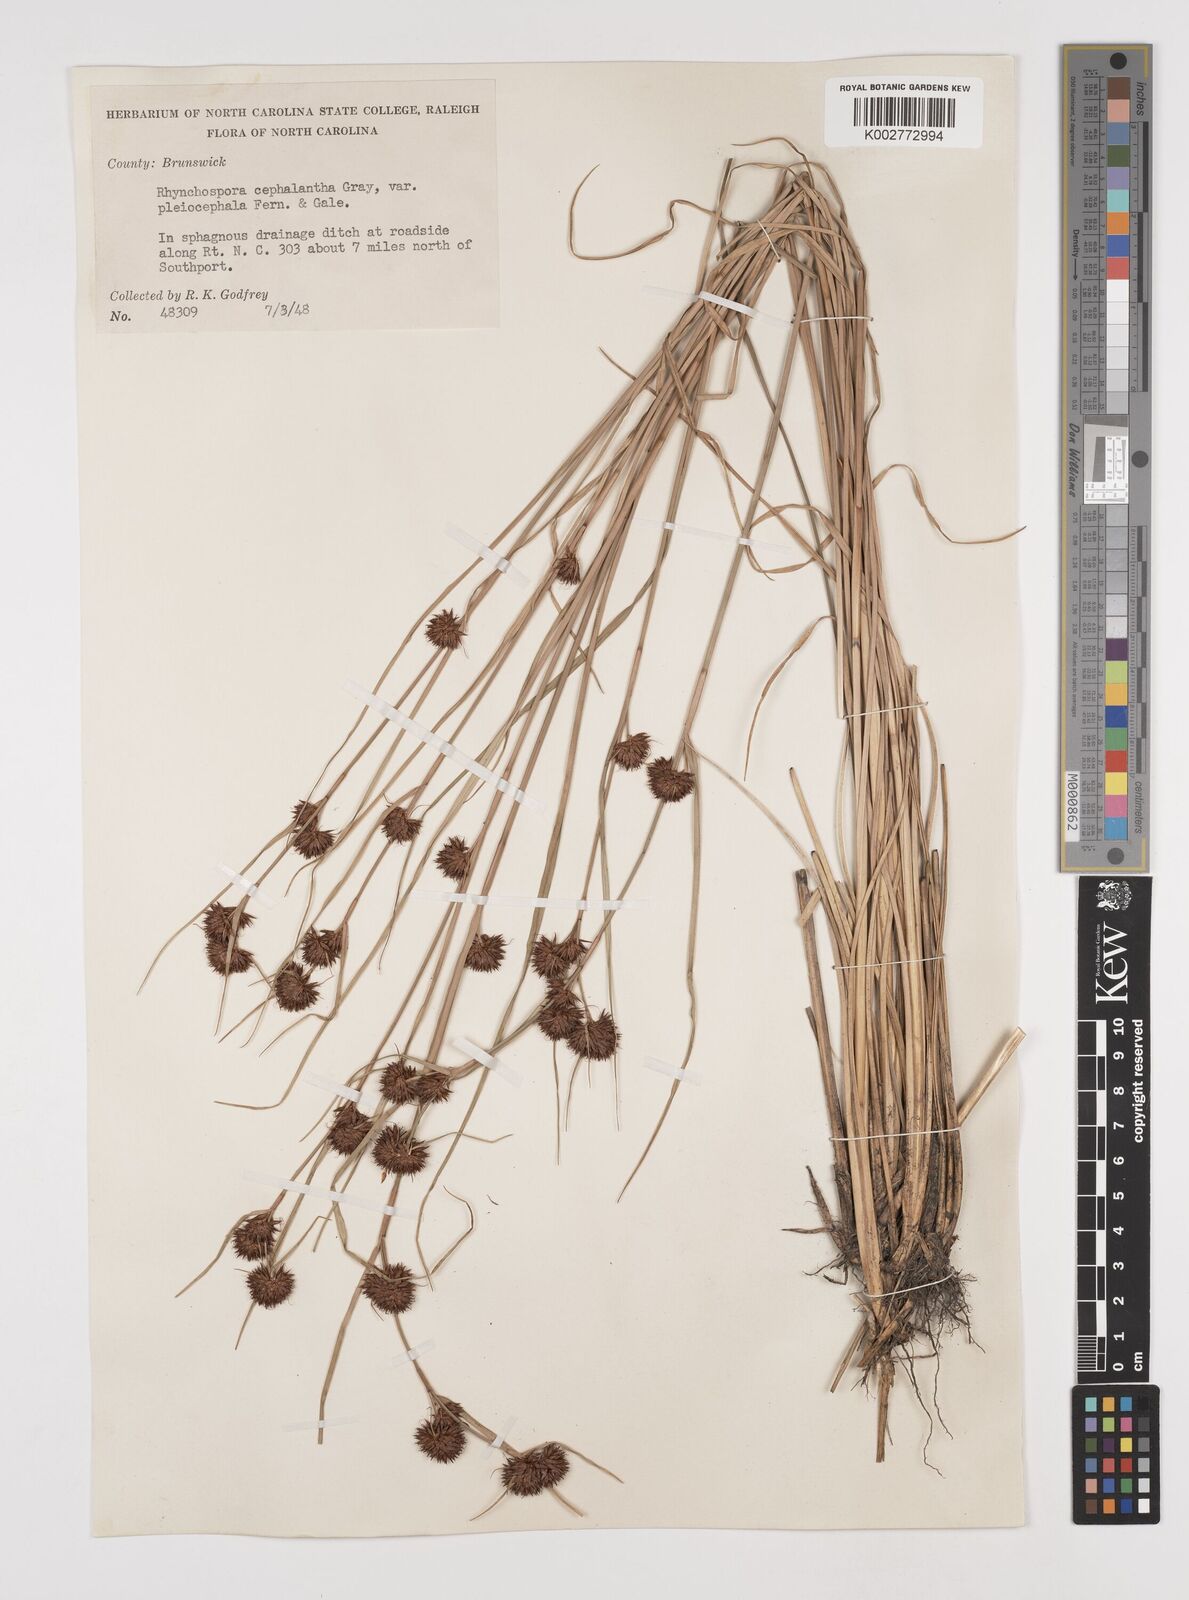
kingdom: Plantae
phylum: Tracheophyta
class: Liliopsida
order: Poales
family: Cyperaceae
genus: Rhynchospora
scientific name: Rhynchospora cephalantha
